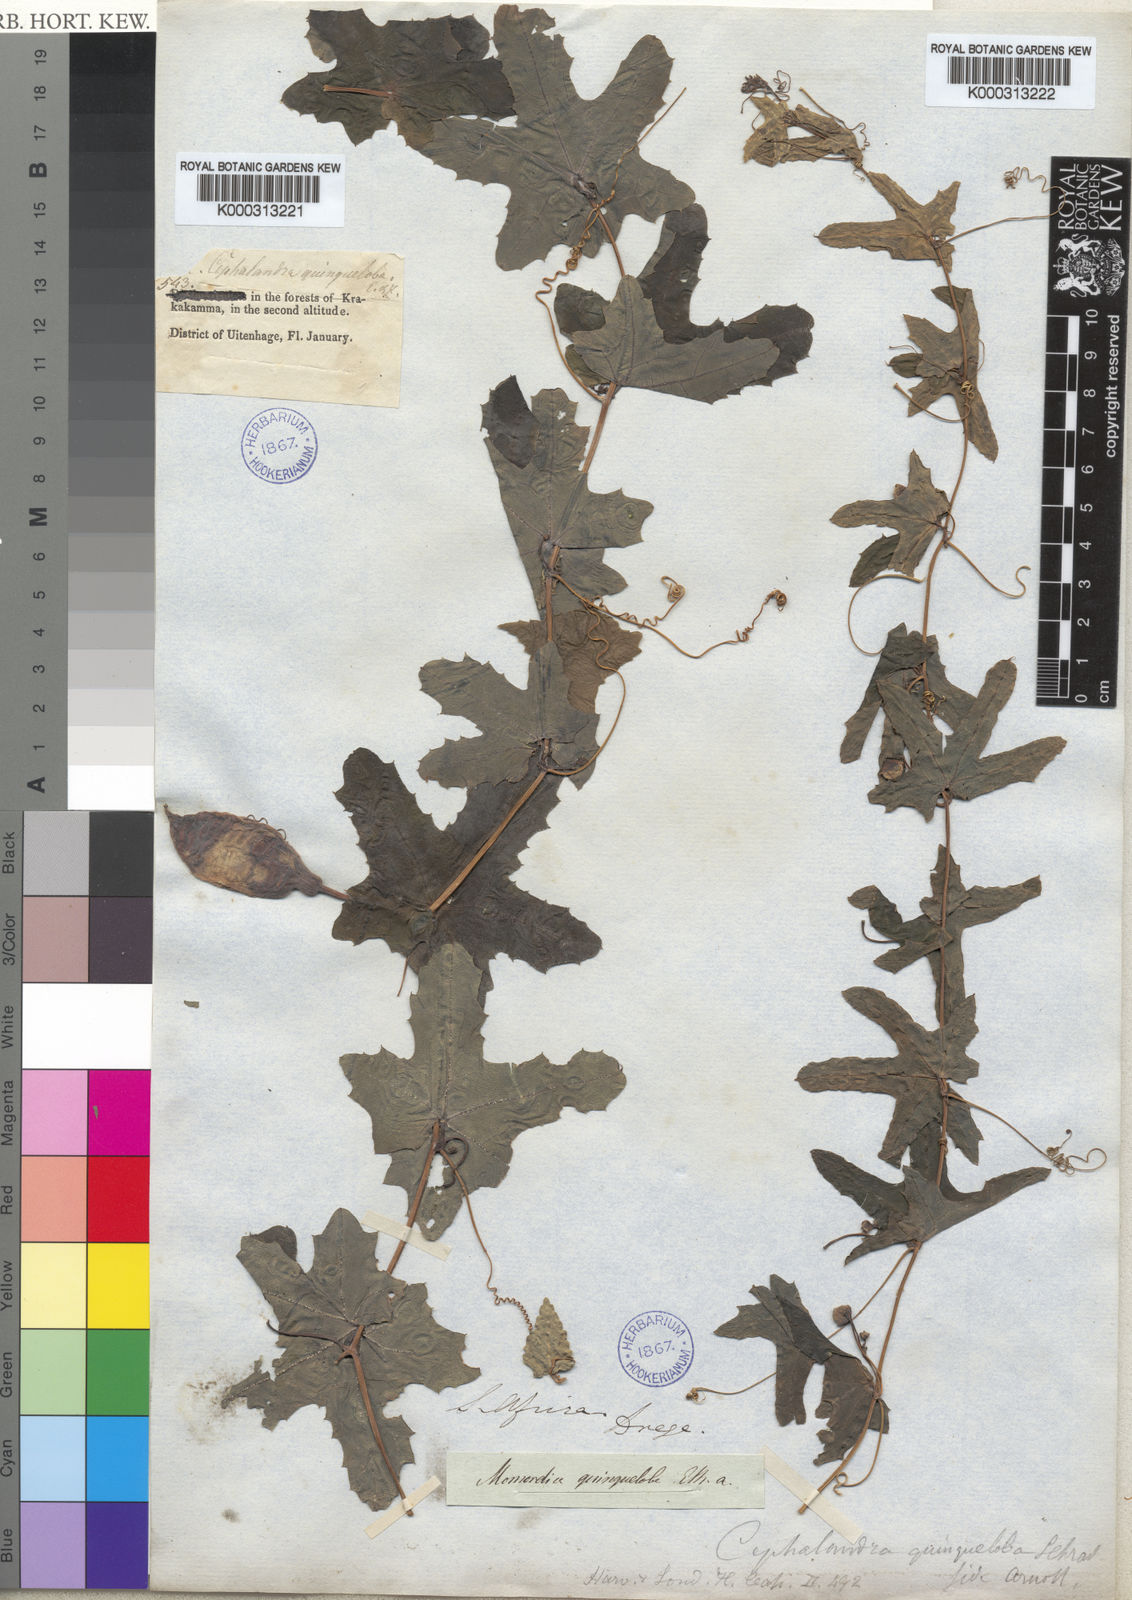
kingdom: Plantae
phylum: Tracheophyta
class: Magnoliopsida
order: Cucurbitales
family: Cucurbitaceae
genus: Coccinia
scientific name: Coccinia quinqueloba
